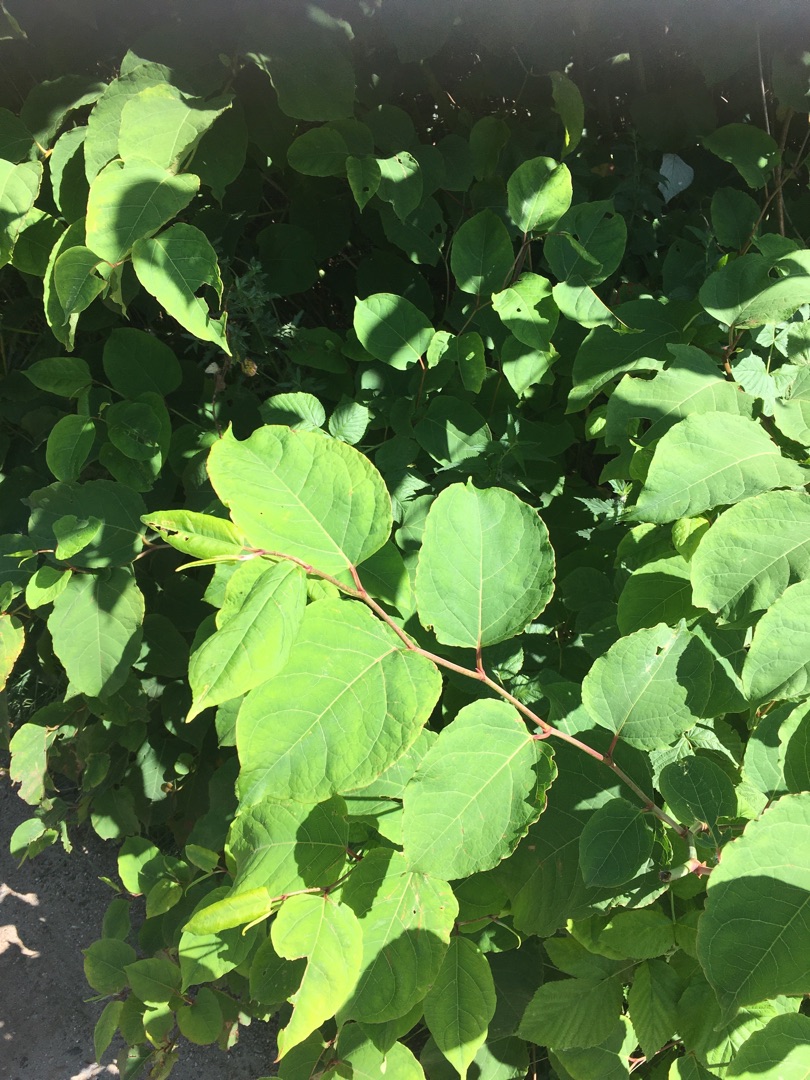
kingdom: Plantae
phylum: Tracheophyta
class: Magnoliopsida
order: Caryophyllales
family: Polygonaceae
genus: Reynoutria
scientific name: Reynoutria japonica
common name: Japan-pileurt
